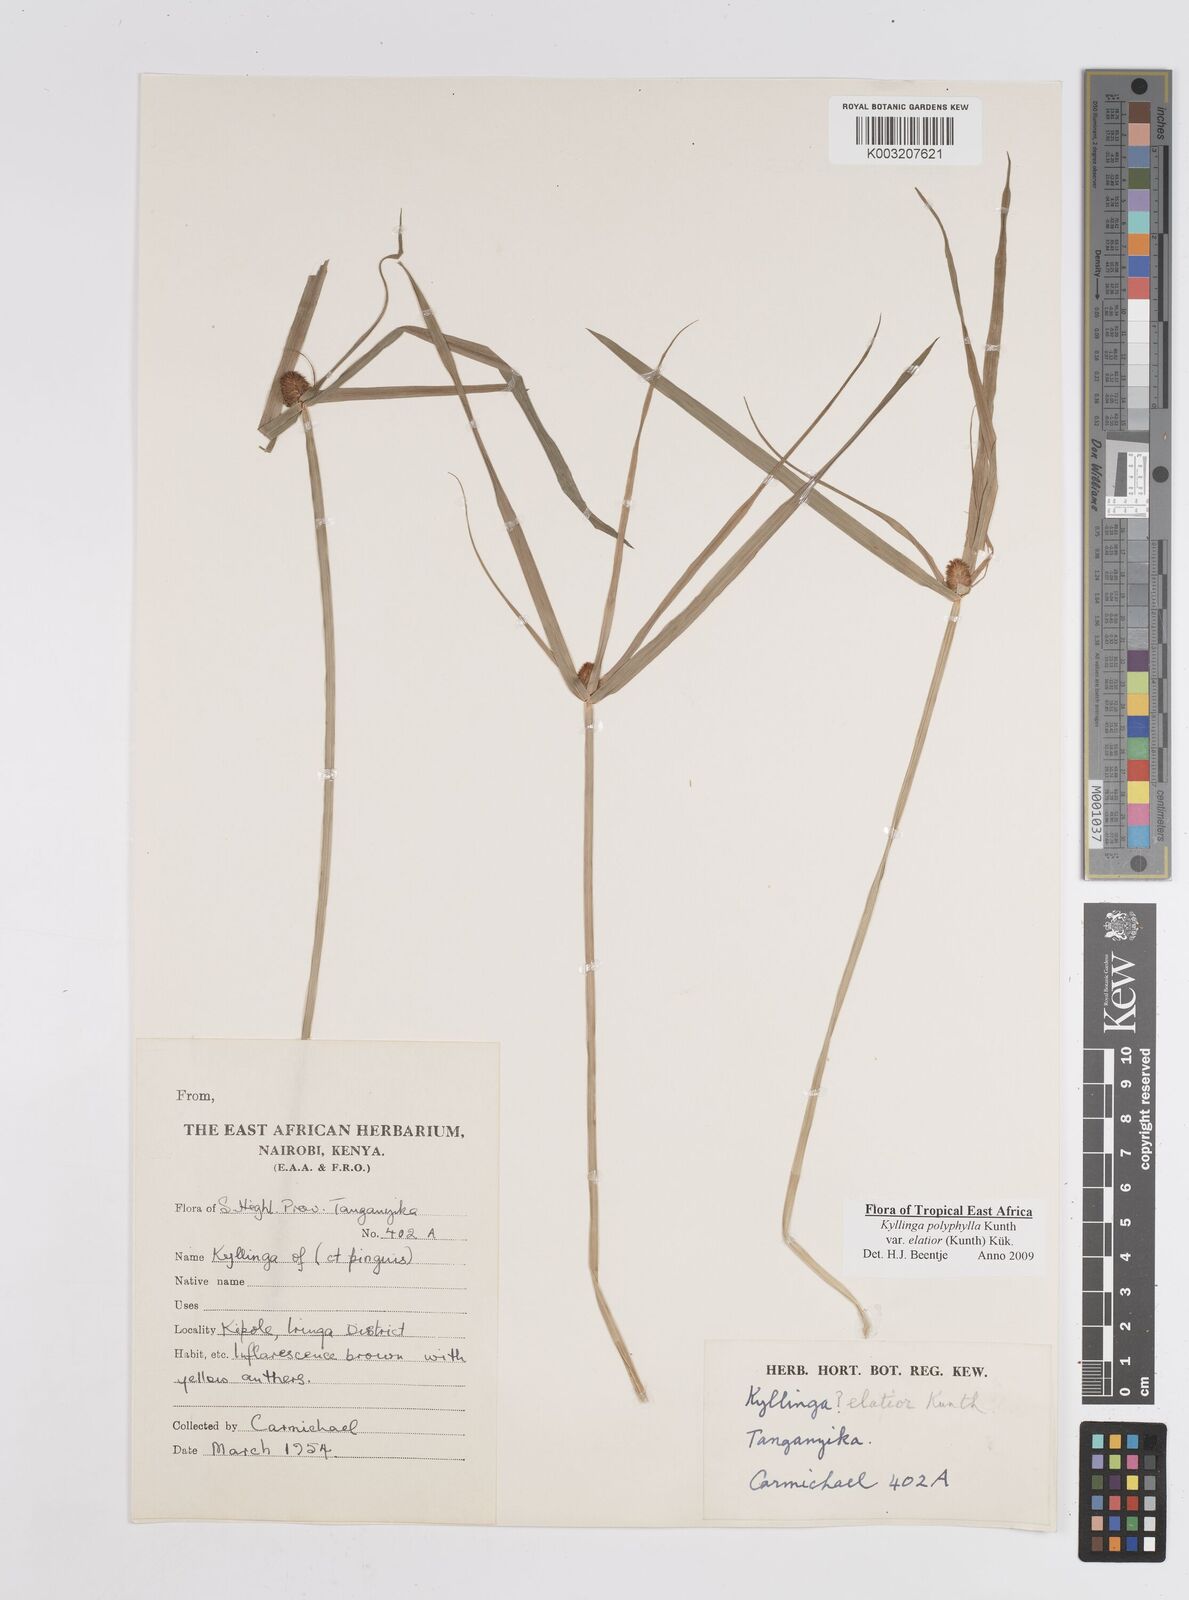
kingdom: Plantae
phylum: Tracheophyta
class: Liliopsida
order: Poales
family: Cyperaceae
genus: Cyperus
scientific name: Cyperus
